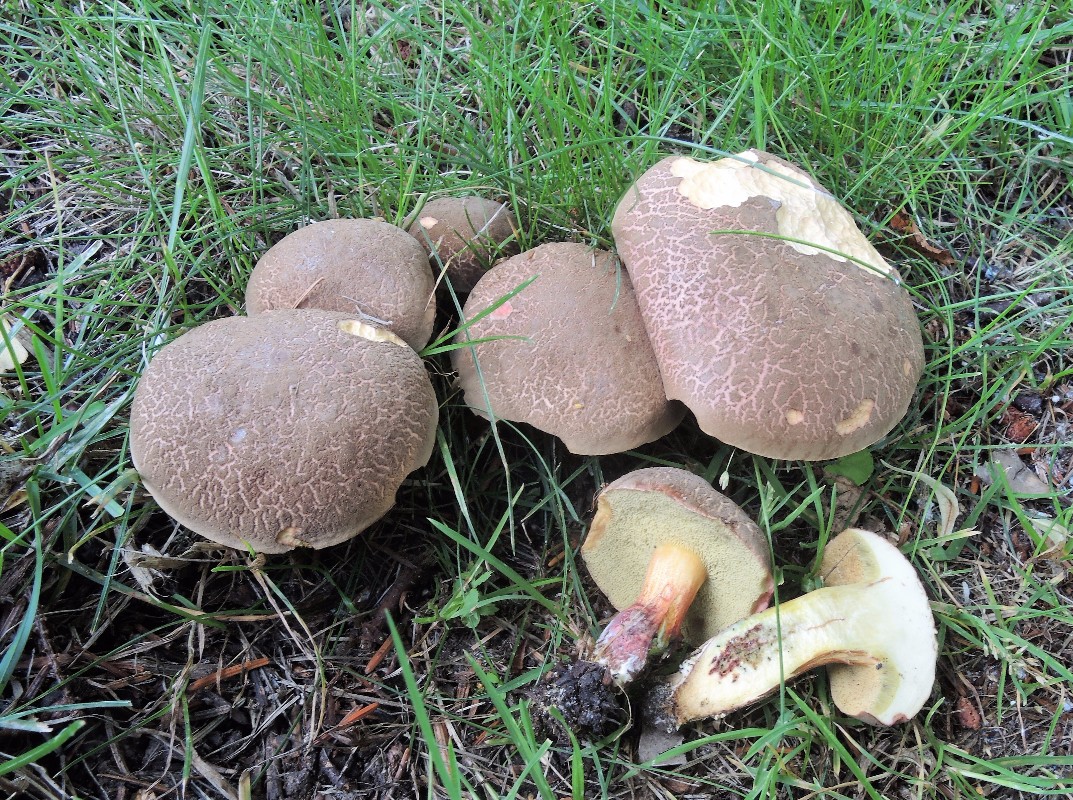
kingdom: Fungi
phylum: Basidiomycota
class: Agaricomycetes
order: Boletales
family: Boletaceae
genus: Xerocomellus
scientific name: Xerocomellus chrysenteron
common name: rødsprukken rørhat
